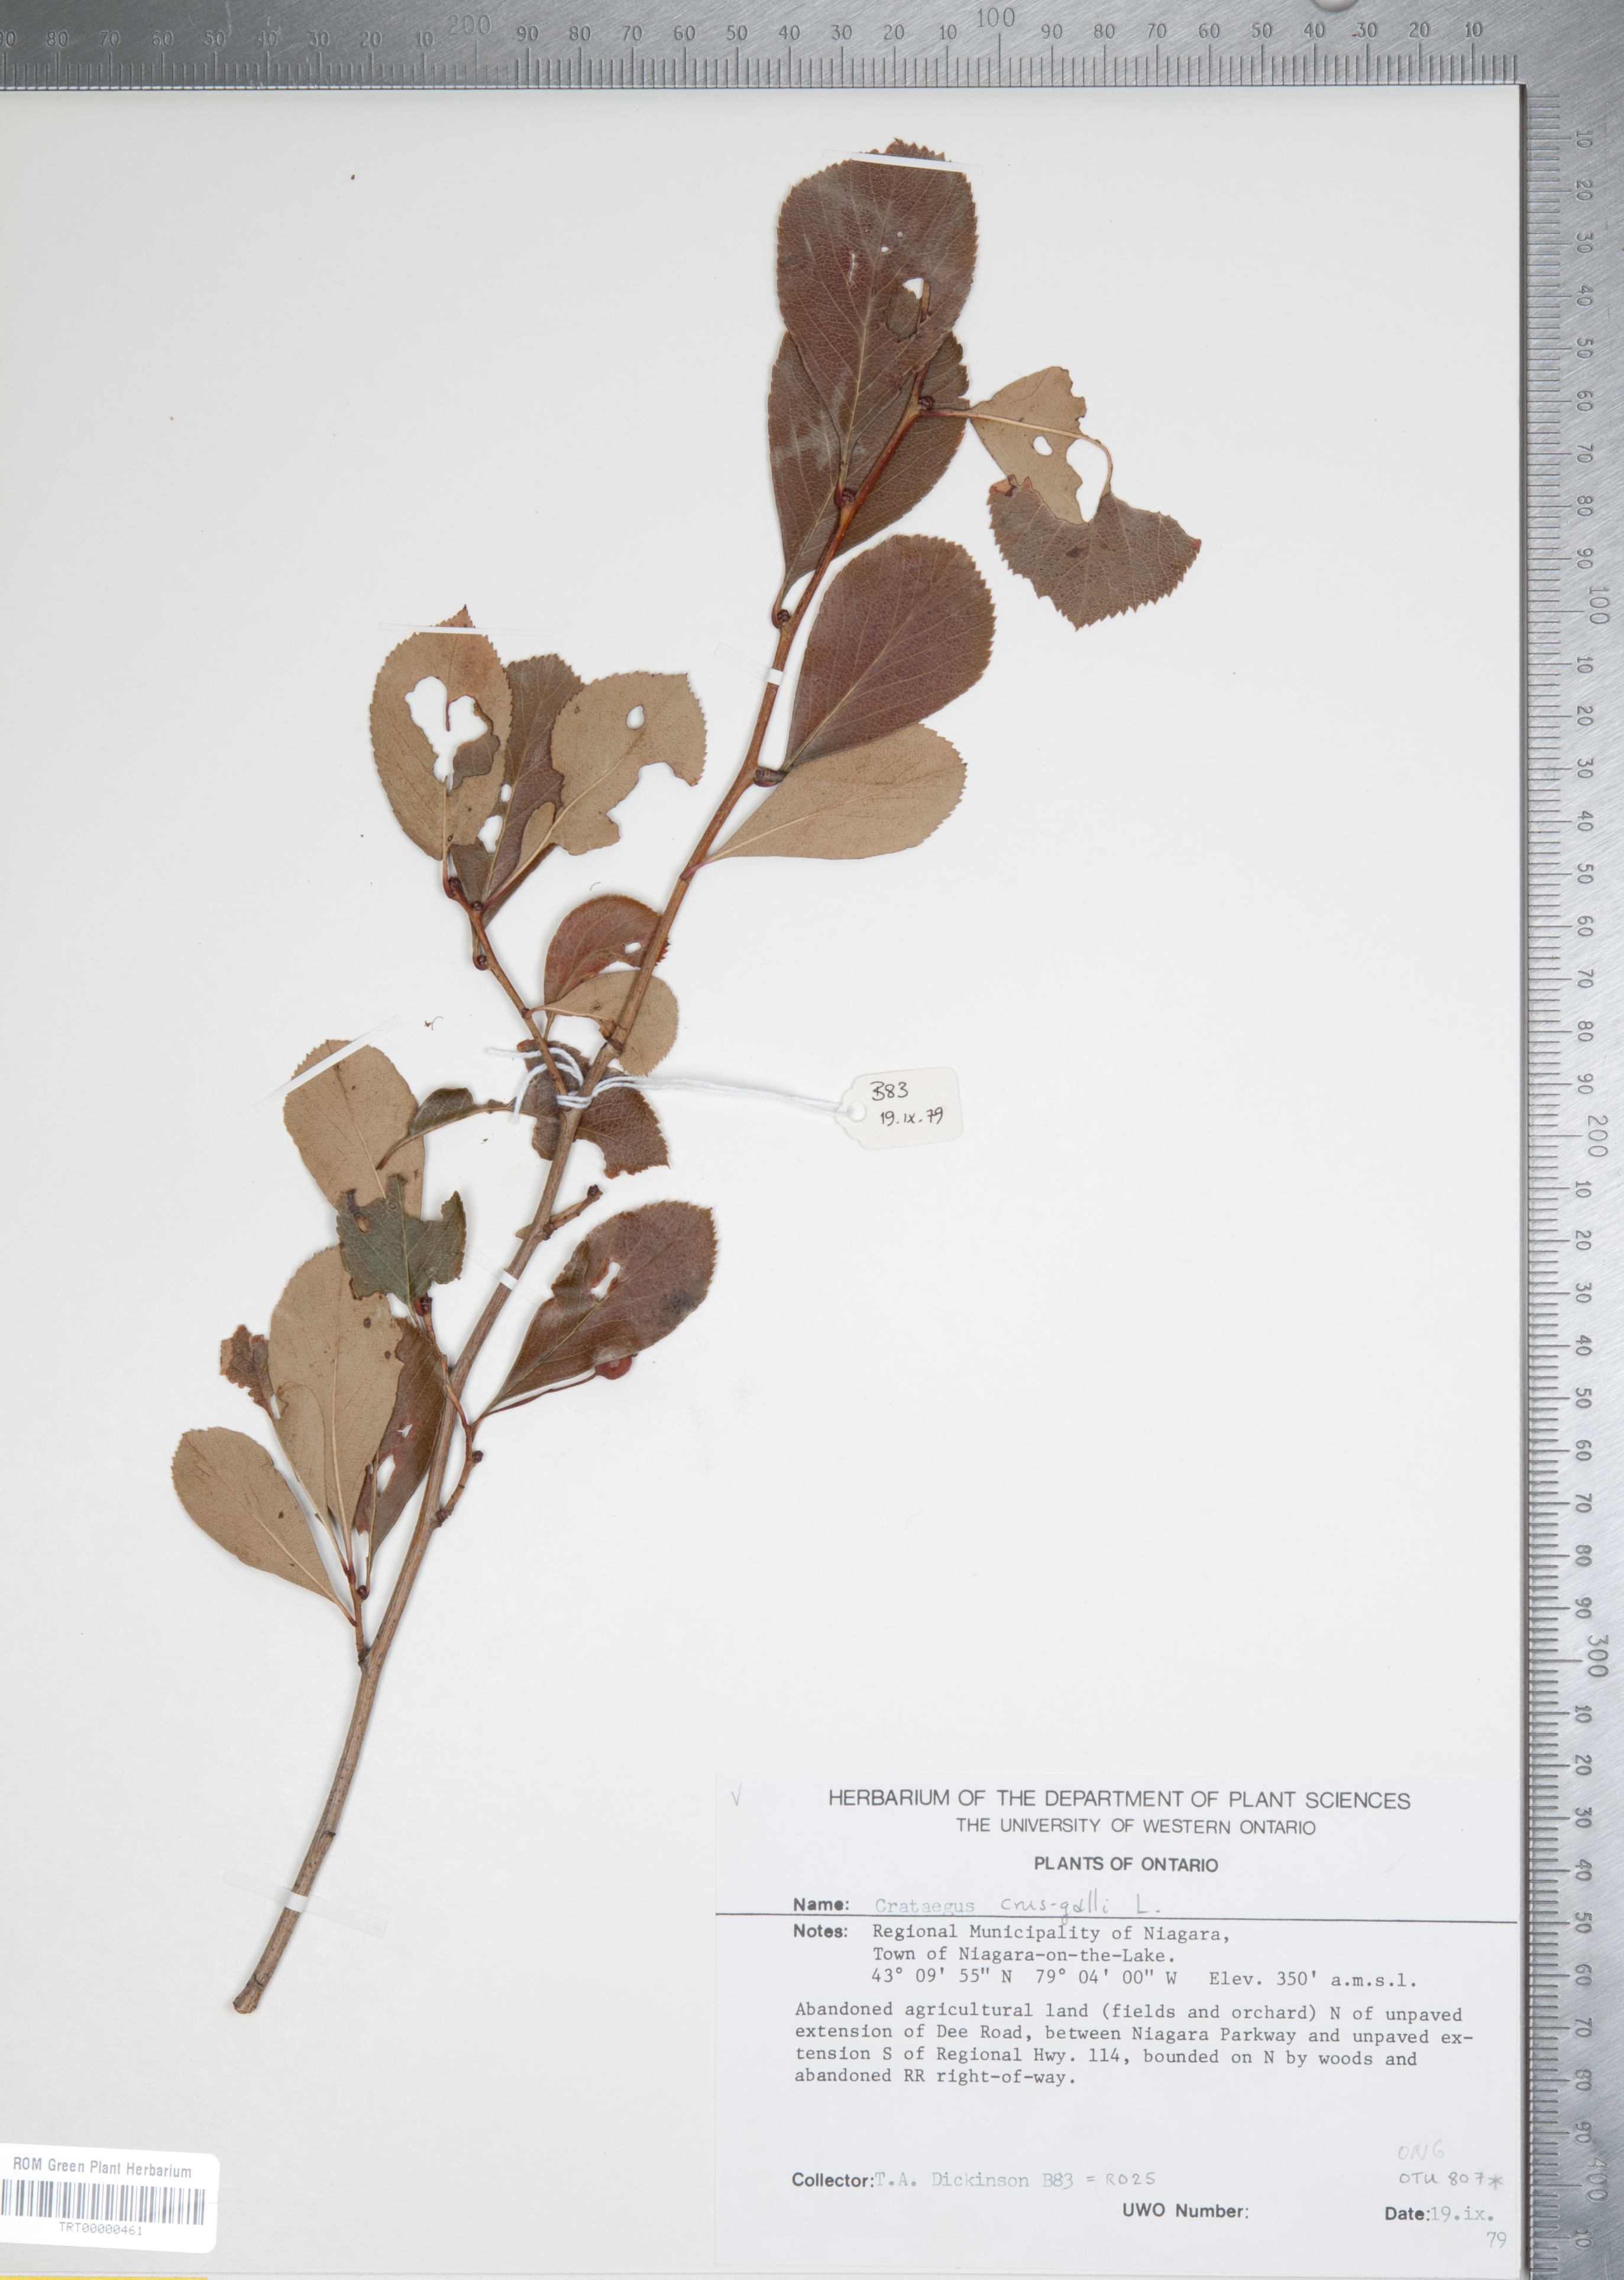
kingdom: Plantae
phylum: Tracheophyta
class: Magnoliopsida
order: Rosales
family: Rosaceae
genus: Crataegus
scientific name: Crataegus crus-galli
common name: Cockspurthorn
